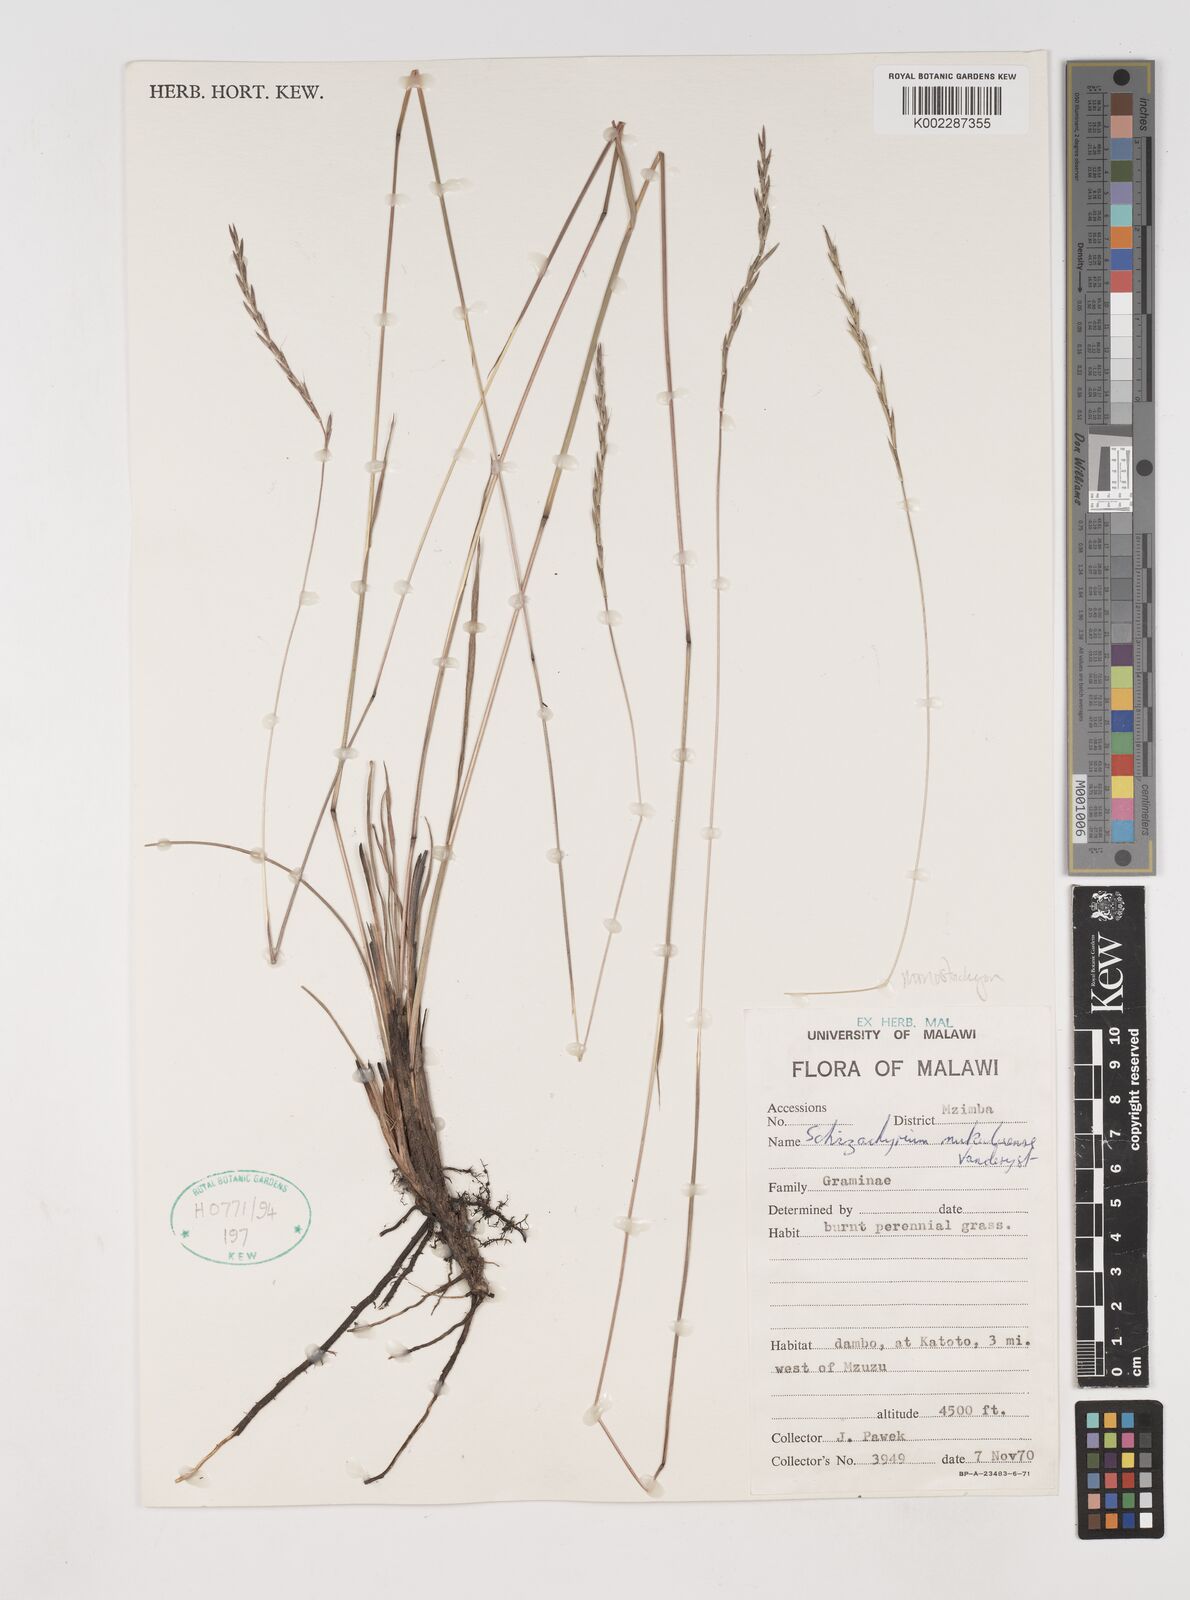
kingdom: Plantae
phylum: Tracheophyta
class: Liliopsida
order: Poales
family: Poaceae
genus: Schizachyrium
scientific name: Schizachyrium thollonii
